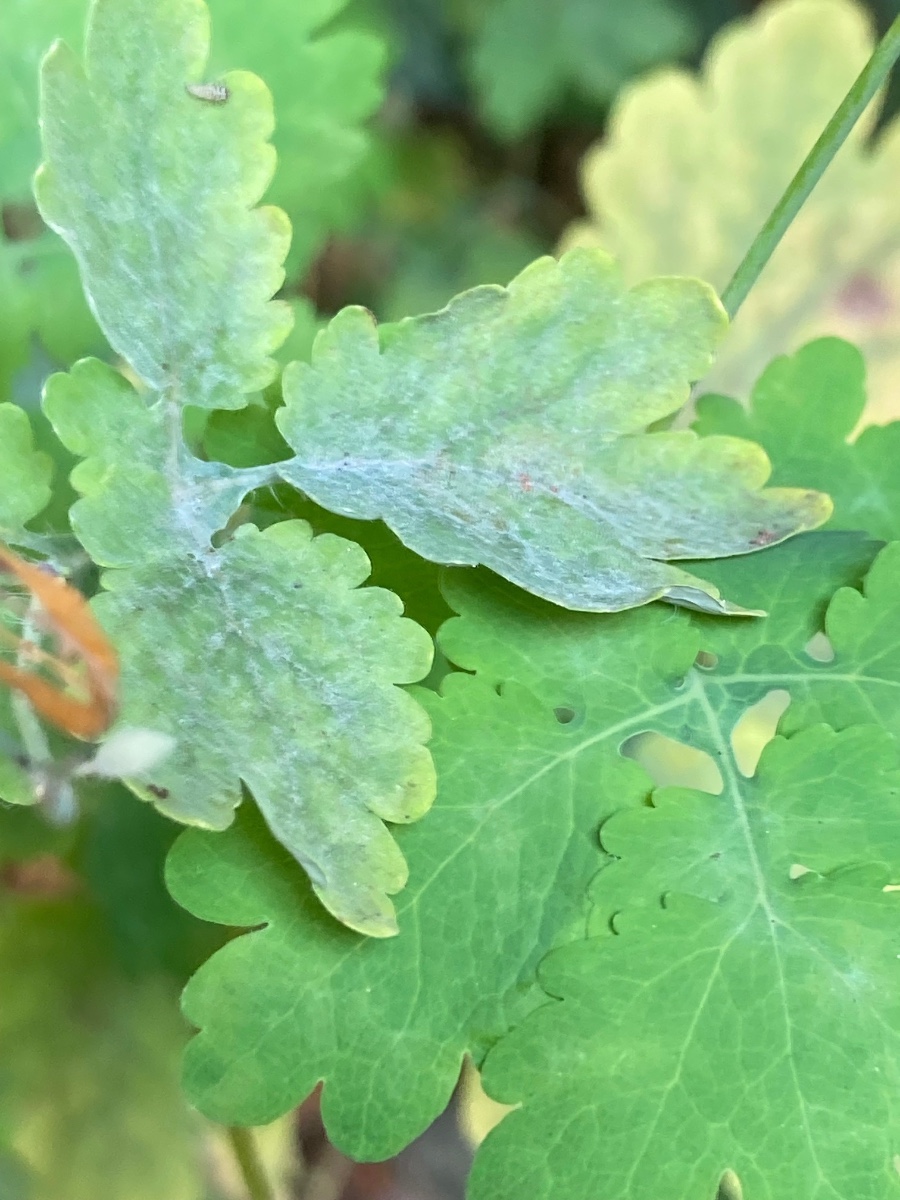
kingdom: Fungi
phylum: Ascomycota
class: Leotiomycetes
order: Helotiales
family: Erysiphaceae
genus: Erysiphe
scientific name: Erysiphe macleayae
